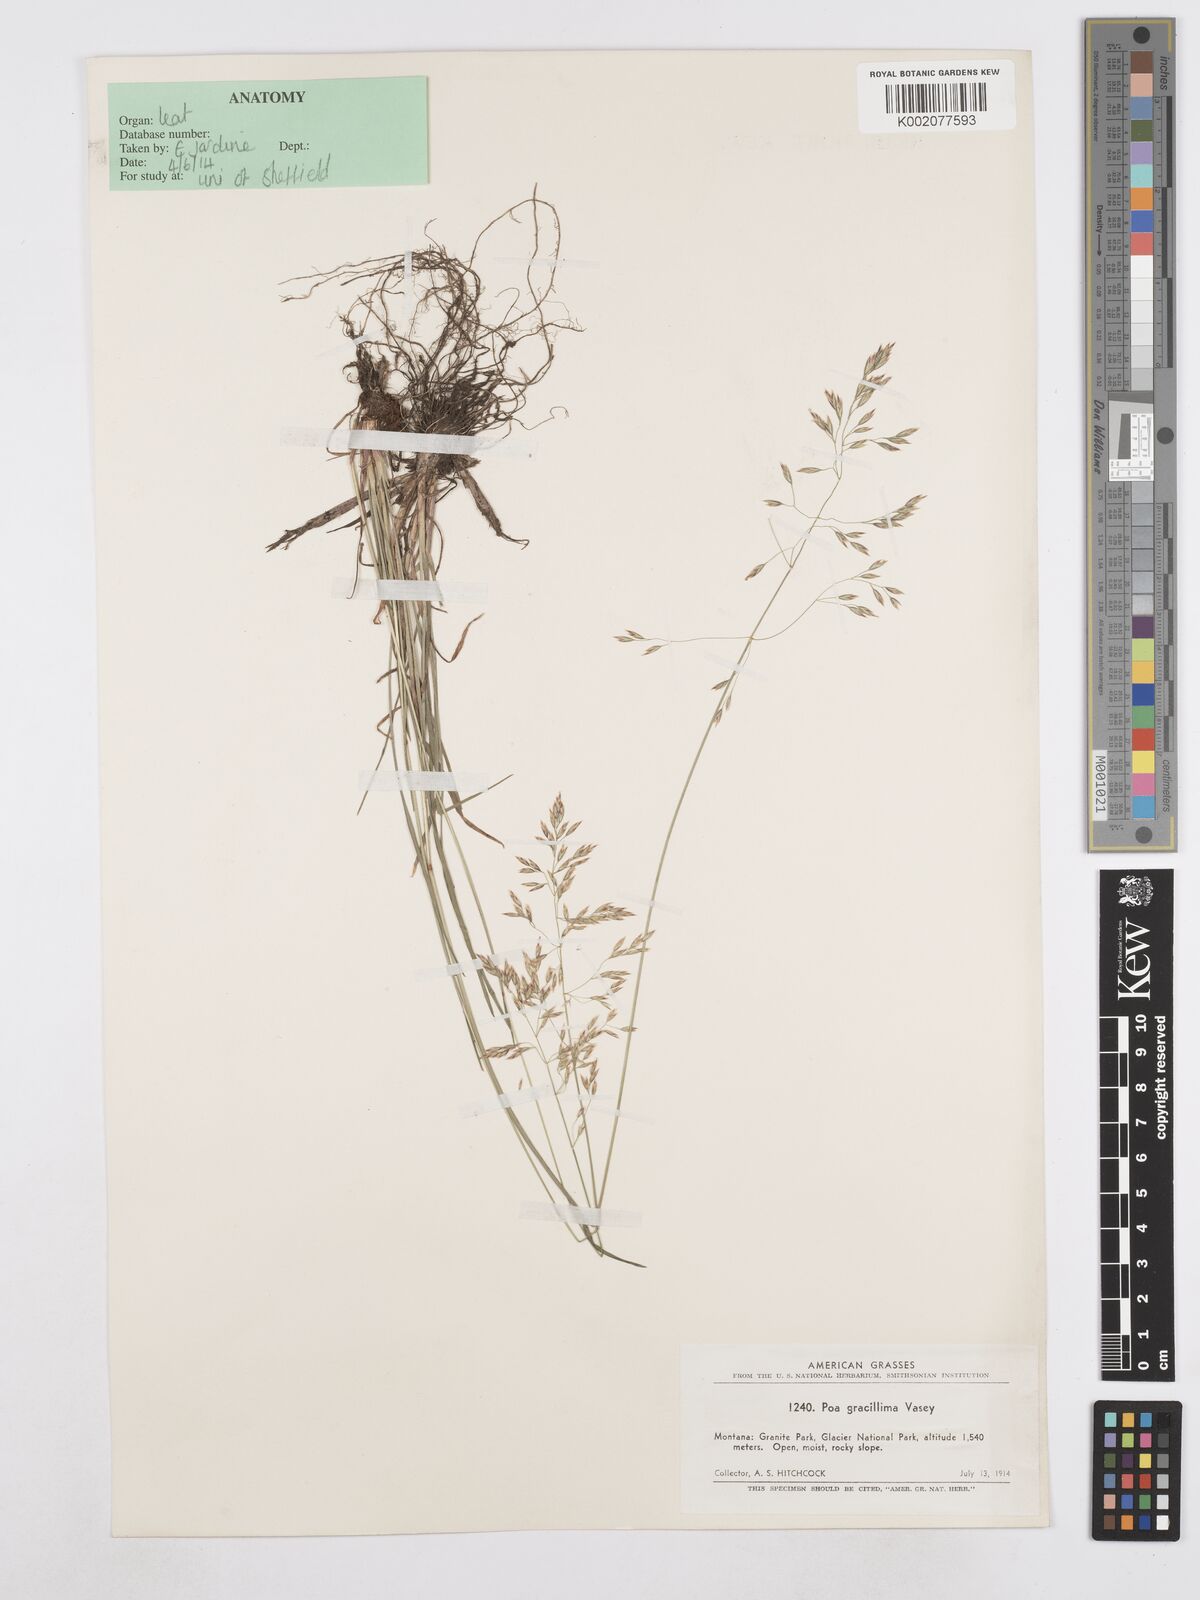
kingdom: Plantae
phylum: Tracheophyta
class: Liliopsida
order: Poales
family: Poaceae
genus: Poa
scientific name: Poa secunda
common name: Sandberg bluegrass
